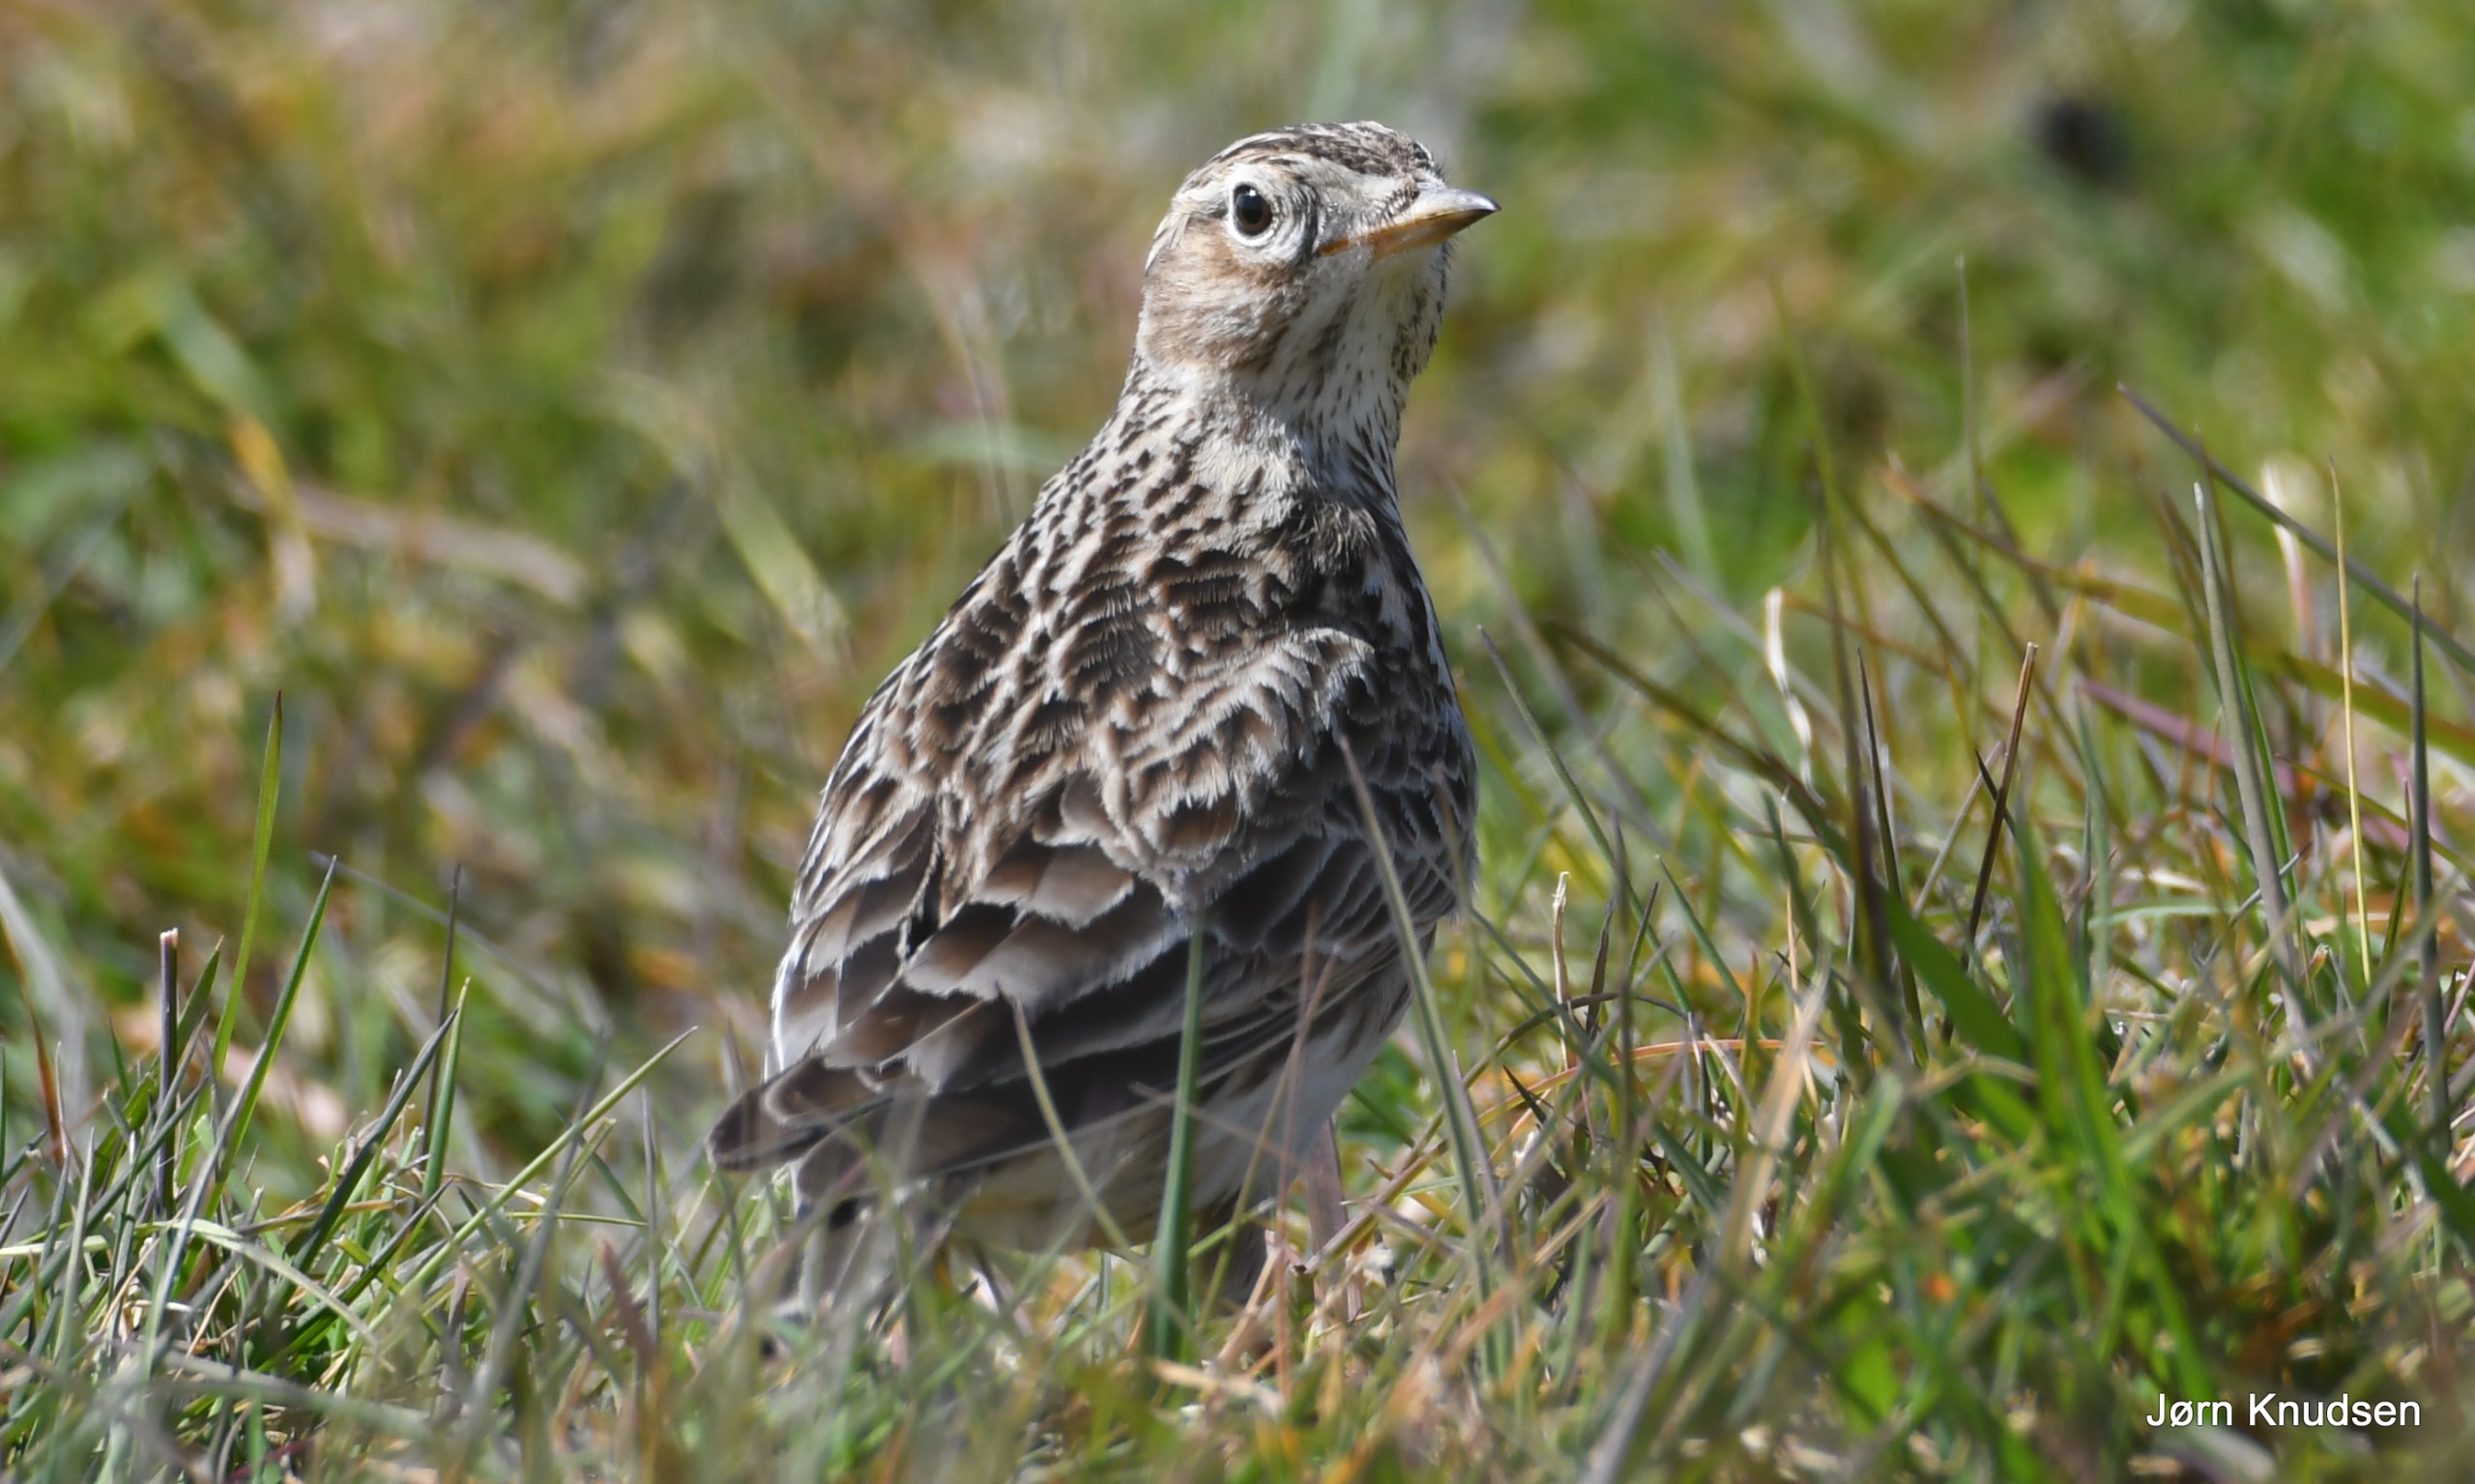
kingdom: Animalia
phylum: Chordata
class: Aves
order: Passeriformes
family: Alaudidae
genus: Alauda
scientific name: Alauda arvensis
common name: Sanglærke
